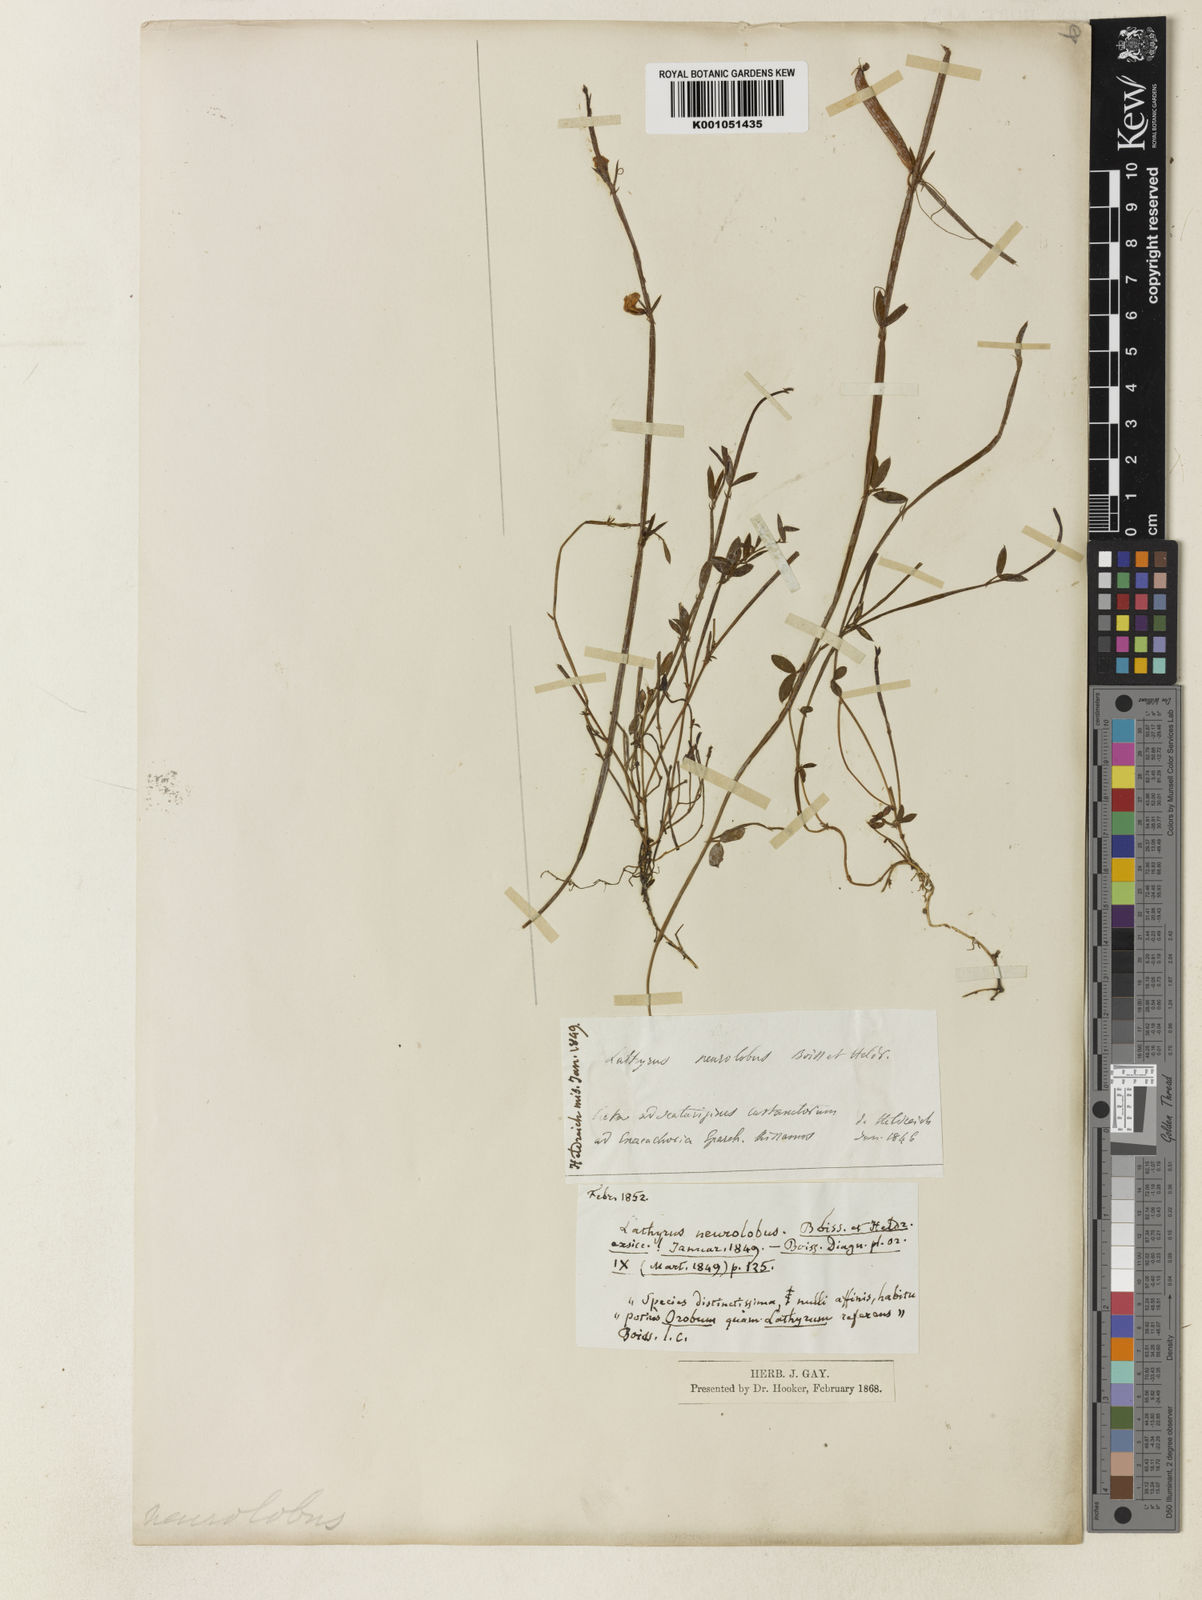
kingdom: Plantae
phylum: Tracheophyta
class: Magnoliopsida
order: Fabales
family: Fabaceae
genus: Lathyrus
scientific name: Lathyrus neurolobus
